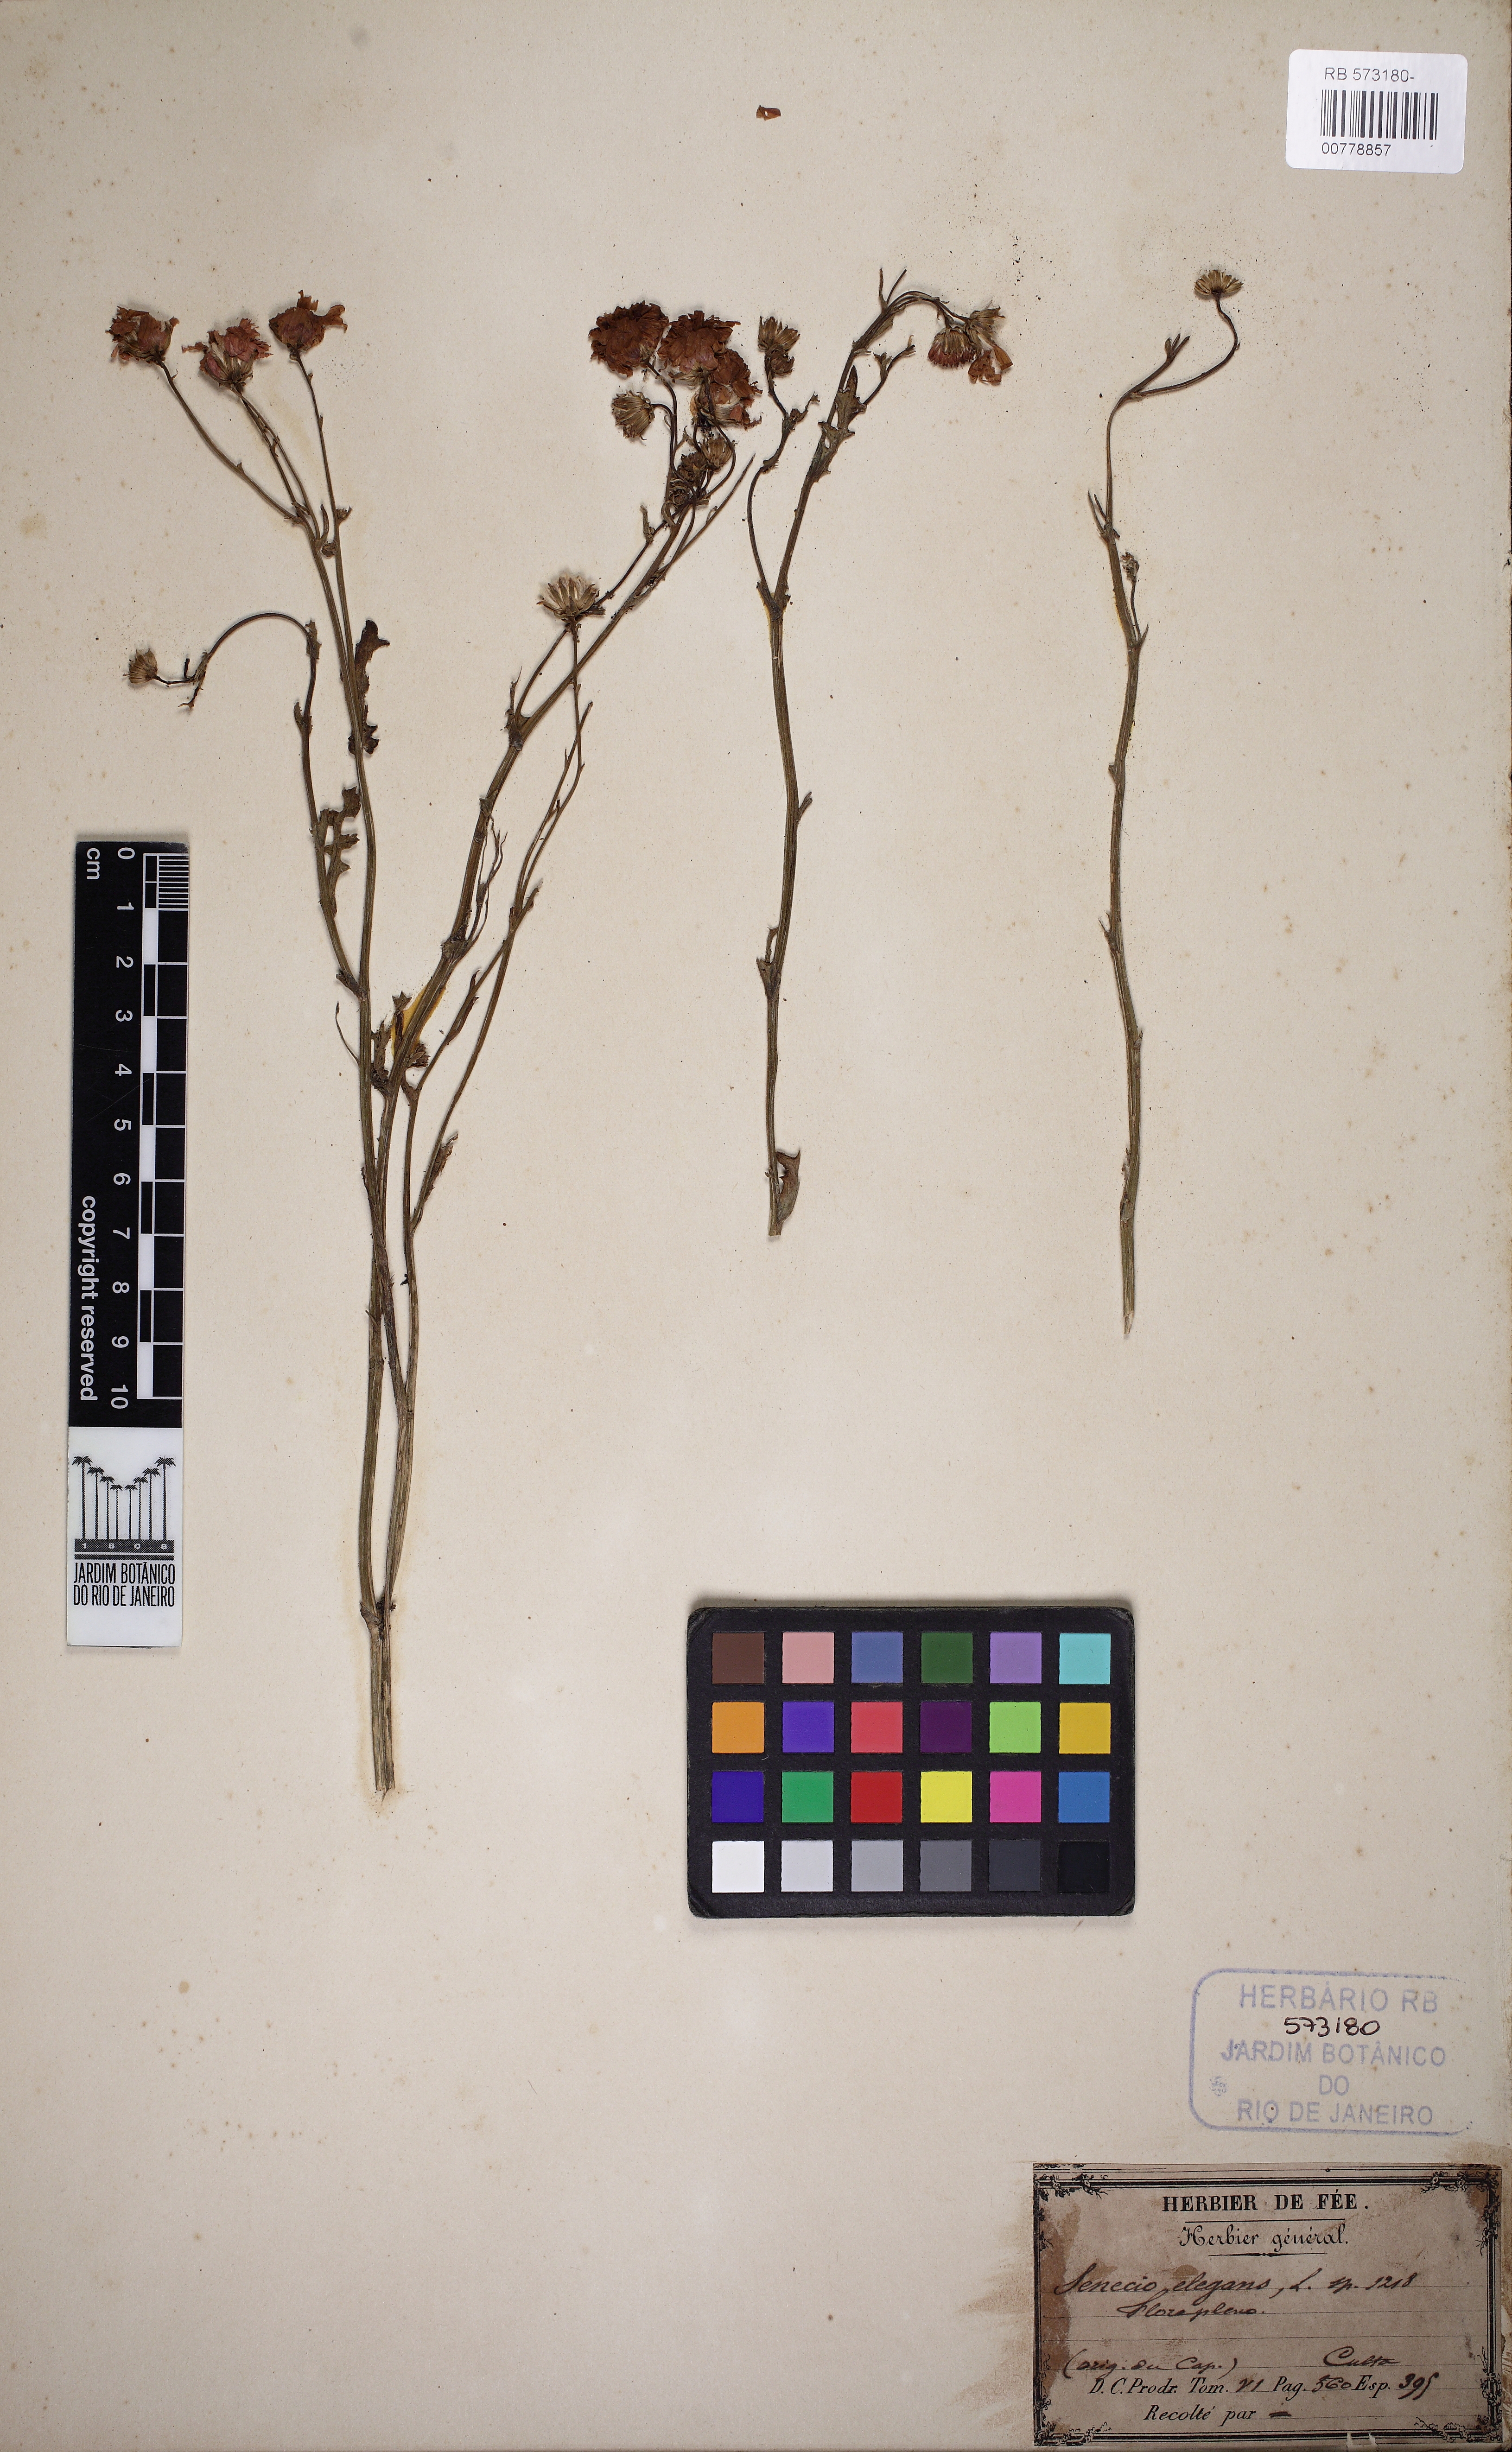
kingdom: Plantae
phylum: Tracheophyta
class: Magnoliopsida
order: Asterales
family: Asteraceae
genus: Senecio
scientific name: Senecio elegans
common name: Purple groundsel
